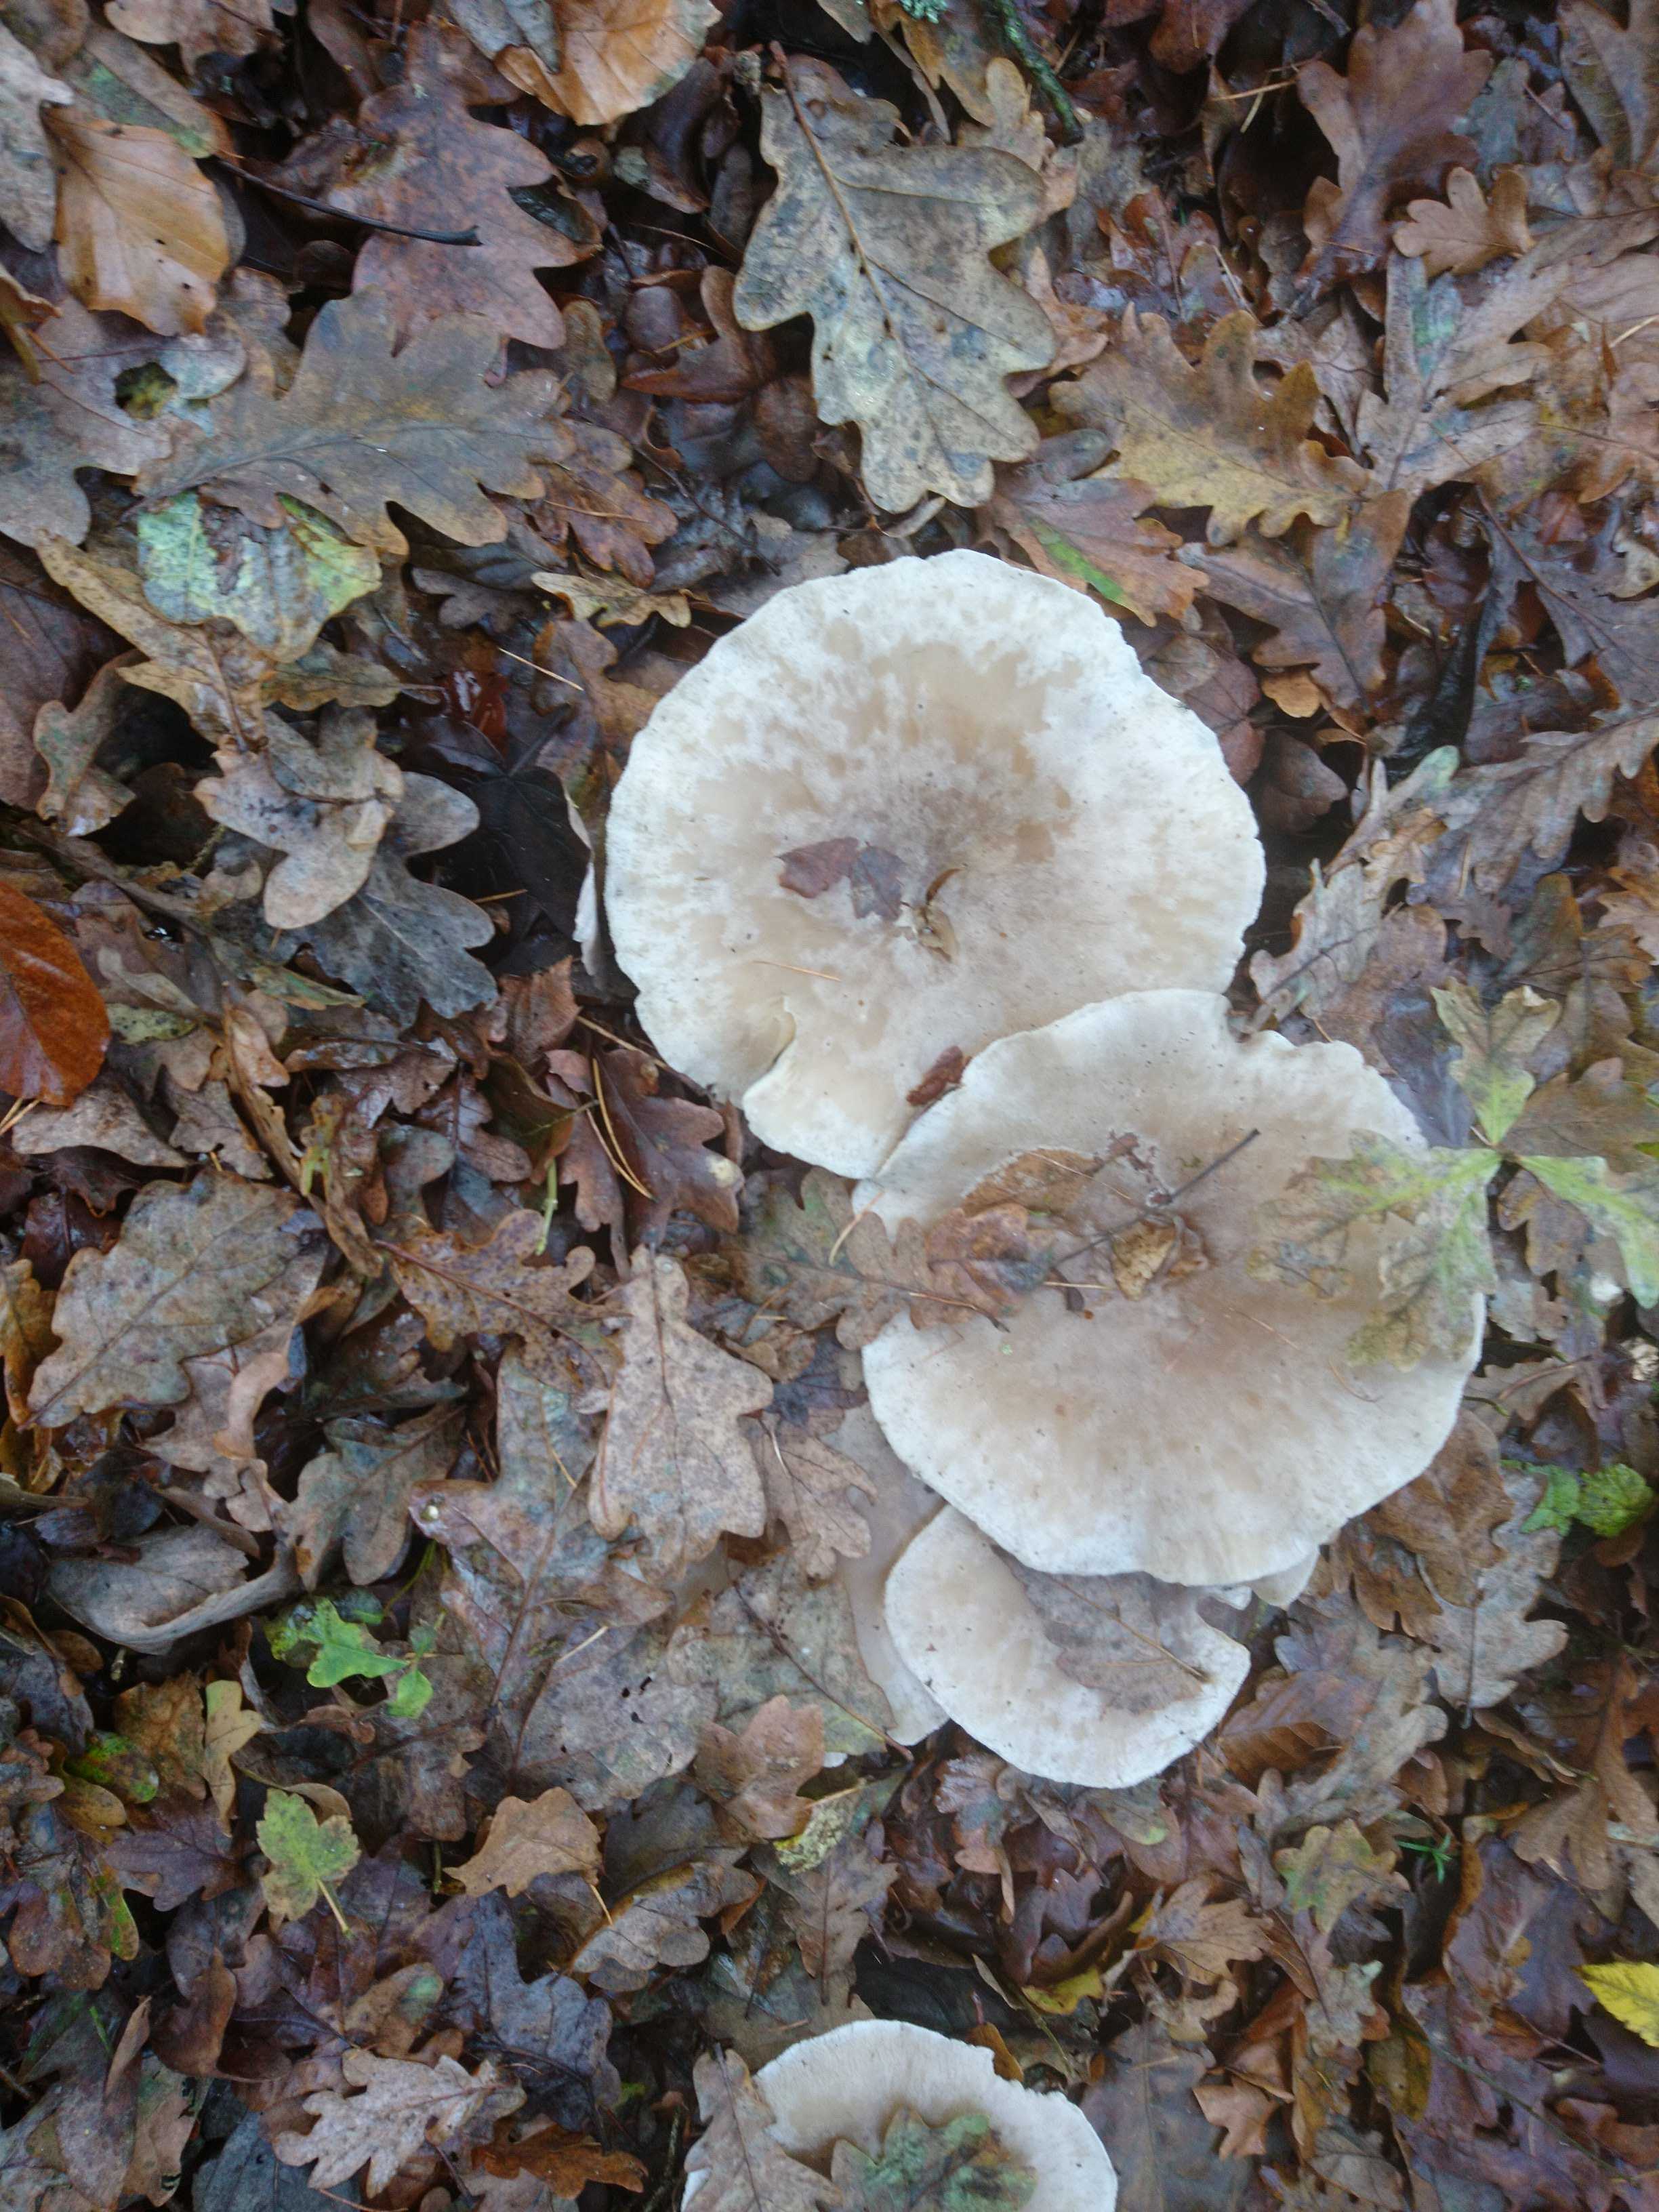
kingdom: Fungi
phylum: Basidiomycota
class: Agaricomycetes
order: Agaricales
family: Tricholomataceae
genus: Clitocybe
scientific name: Clitocybe nebularis
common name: tåge-tragthat
